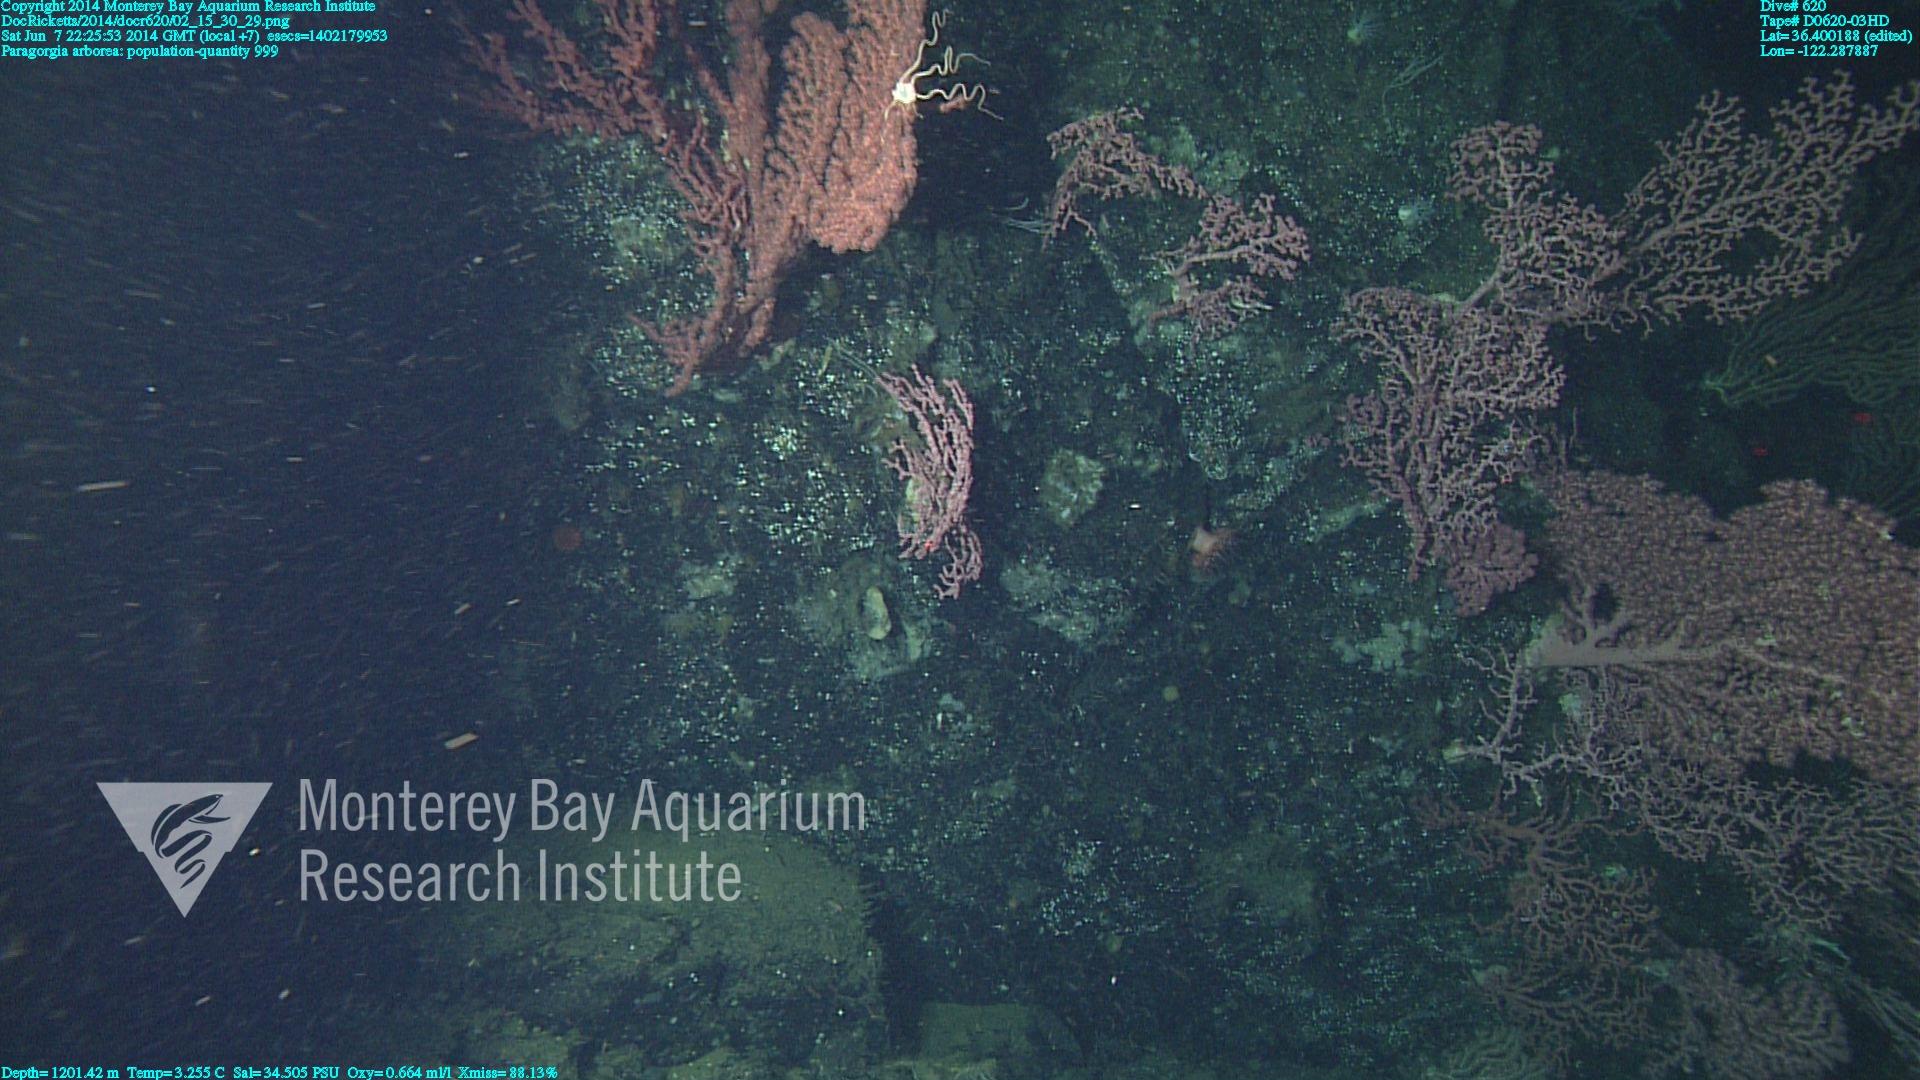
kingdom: Animalia
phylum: Cnidaria
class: Anthozoa
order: Scleralcyonacea
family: Coralliidae
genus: Paragorgia
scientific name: Paragorgia arborea
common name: Bubble gum coral
